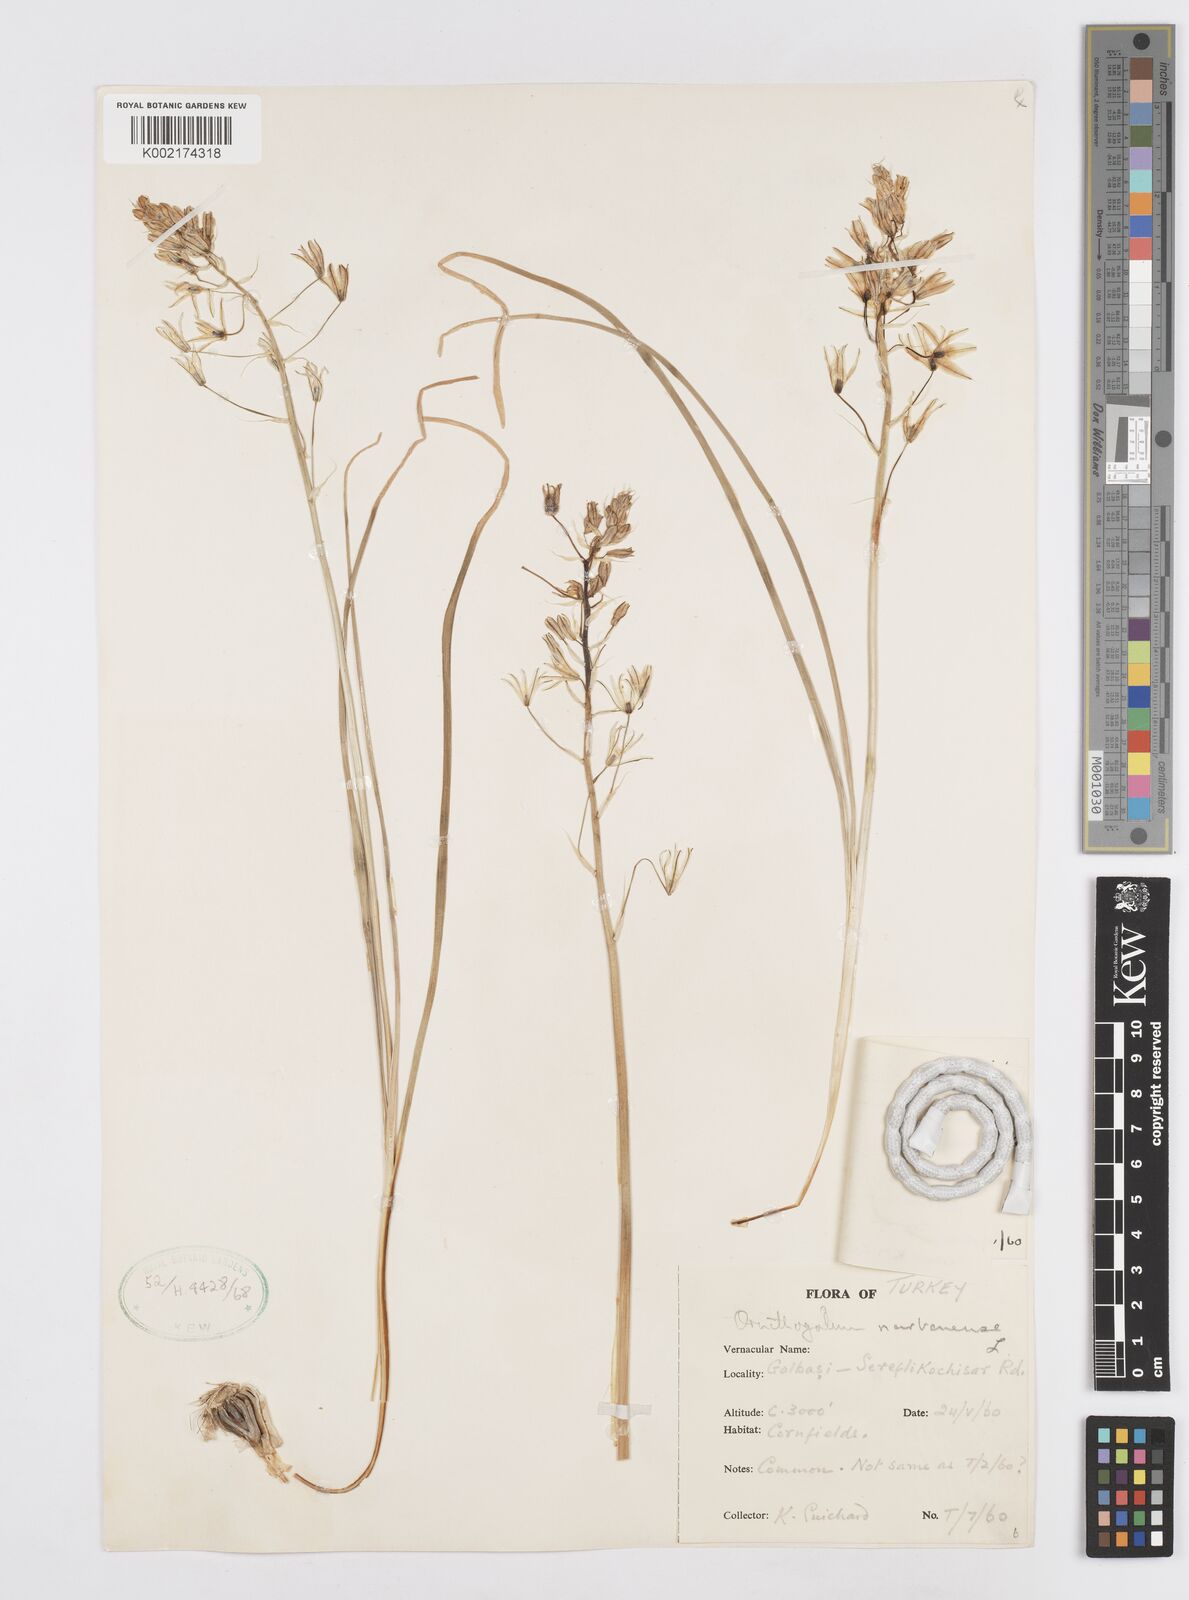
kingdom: Plantae
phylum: Tracheophyta
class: Liliopsida
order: Asparagales
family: Asparagaceae
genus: Ornithogalum
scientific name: Ornithogalum narbonense
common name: Bath-asparagus
